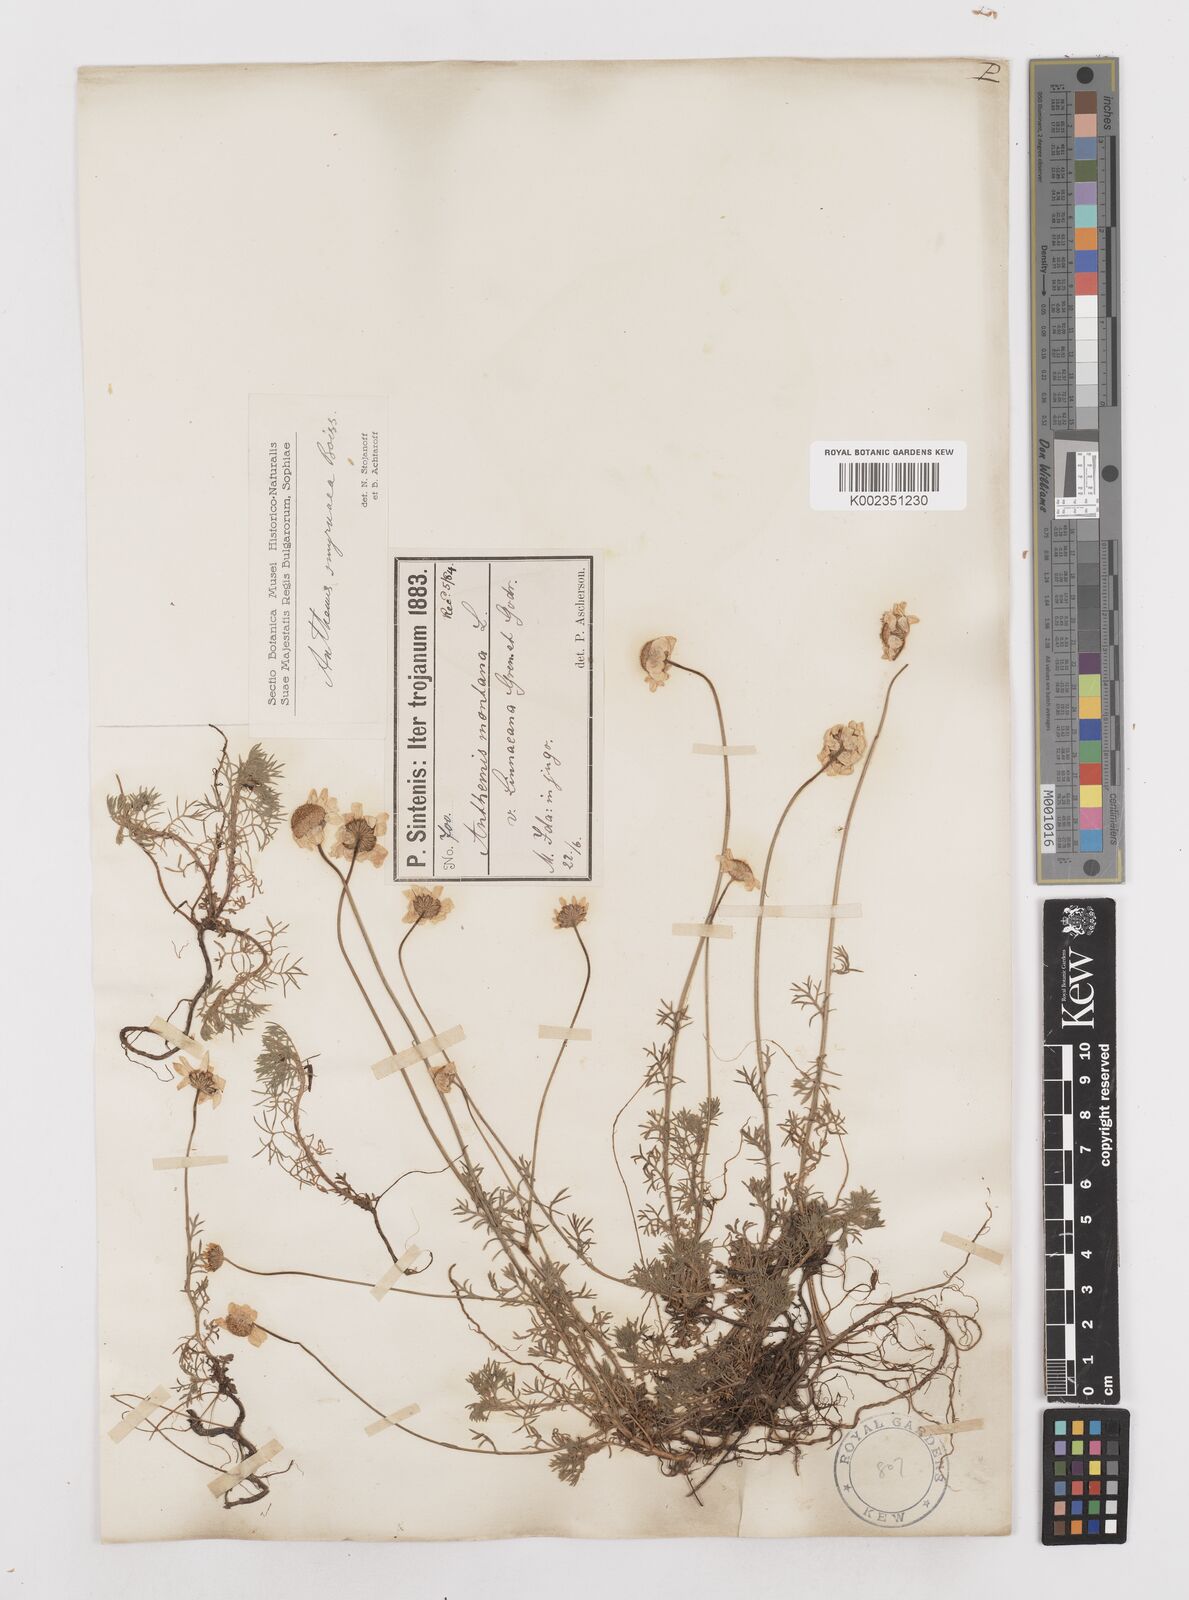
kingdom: Plantae
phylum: Tracheophyta
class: Magnoliopsida
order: Asterales
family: Asteraceae
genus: Anthemis
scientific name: Anthemis cretica
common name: Mountain dog-daisy
